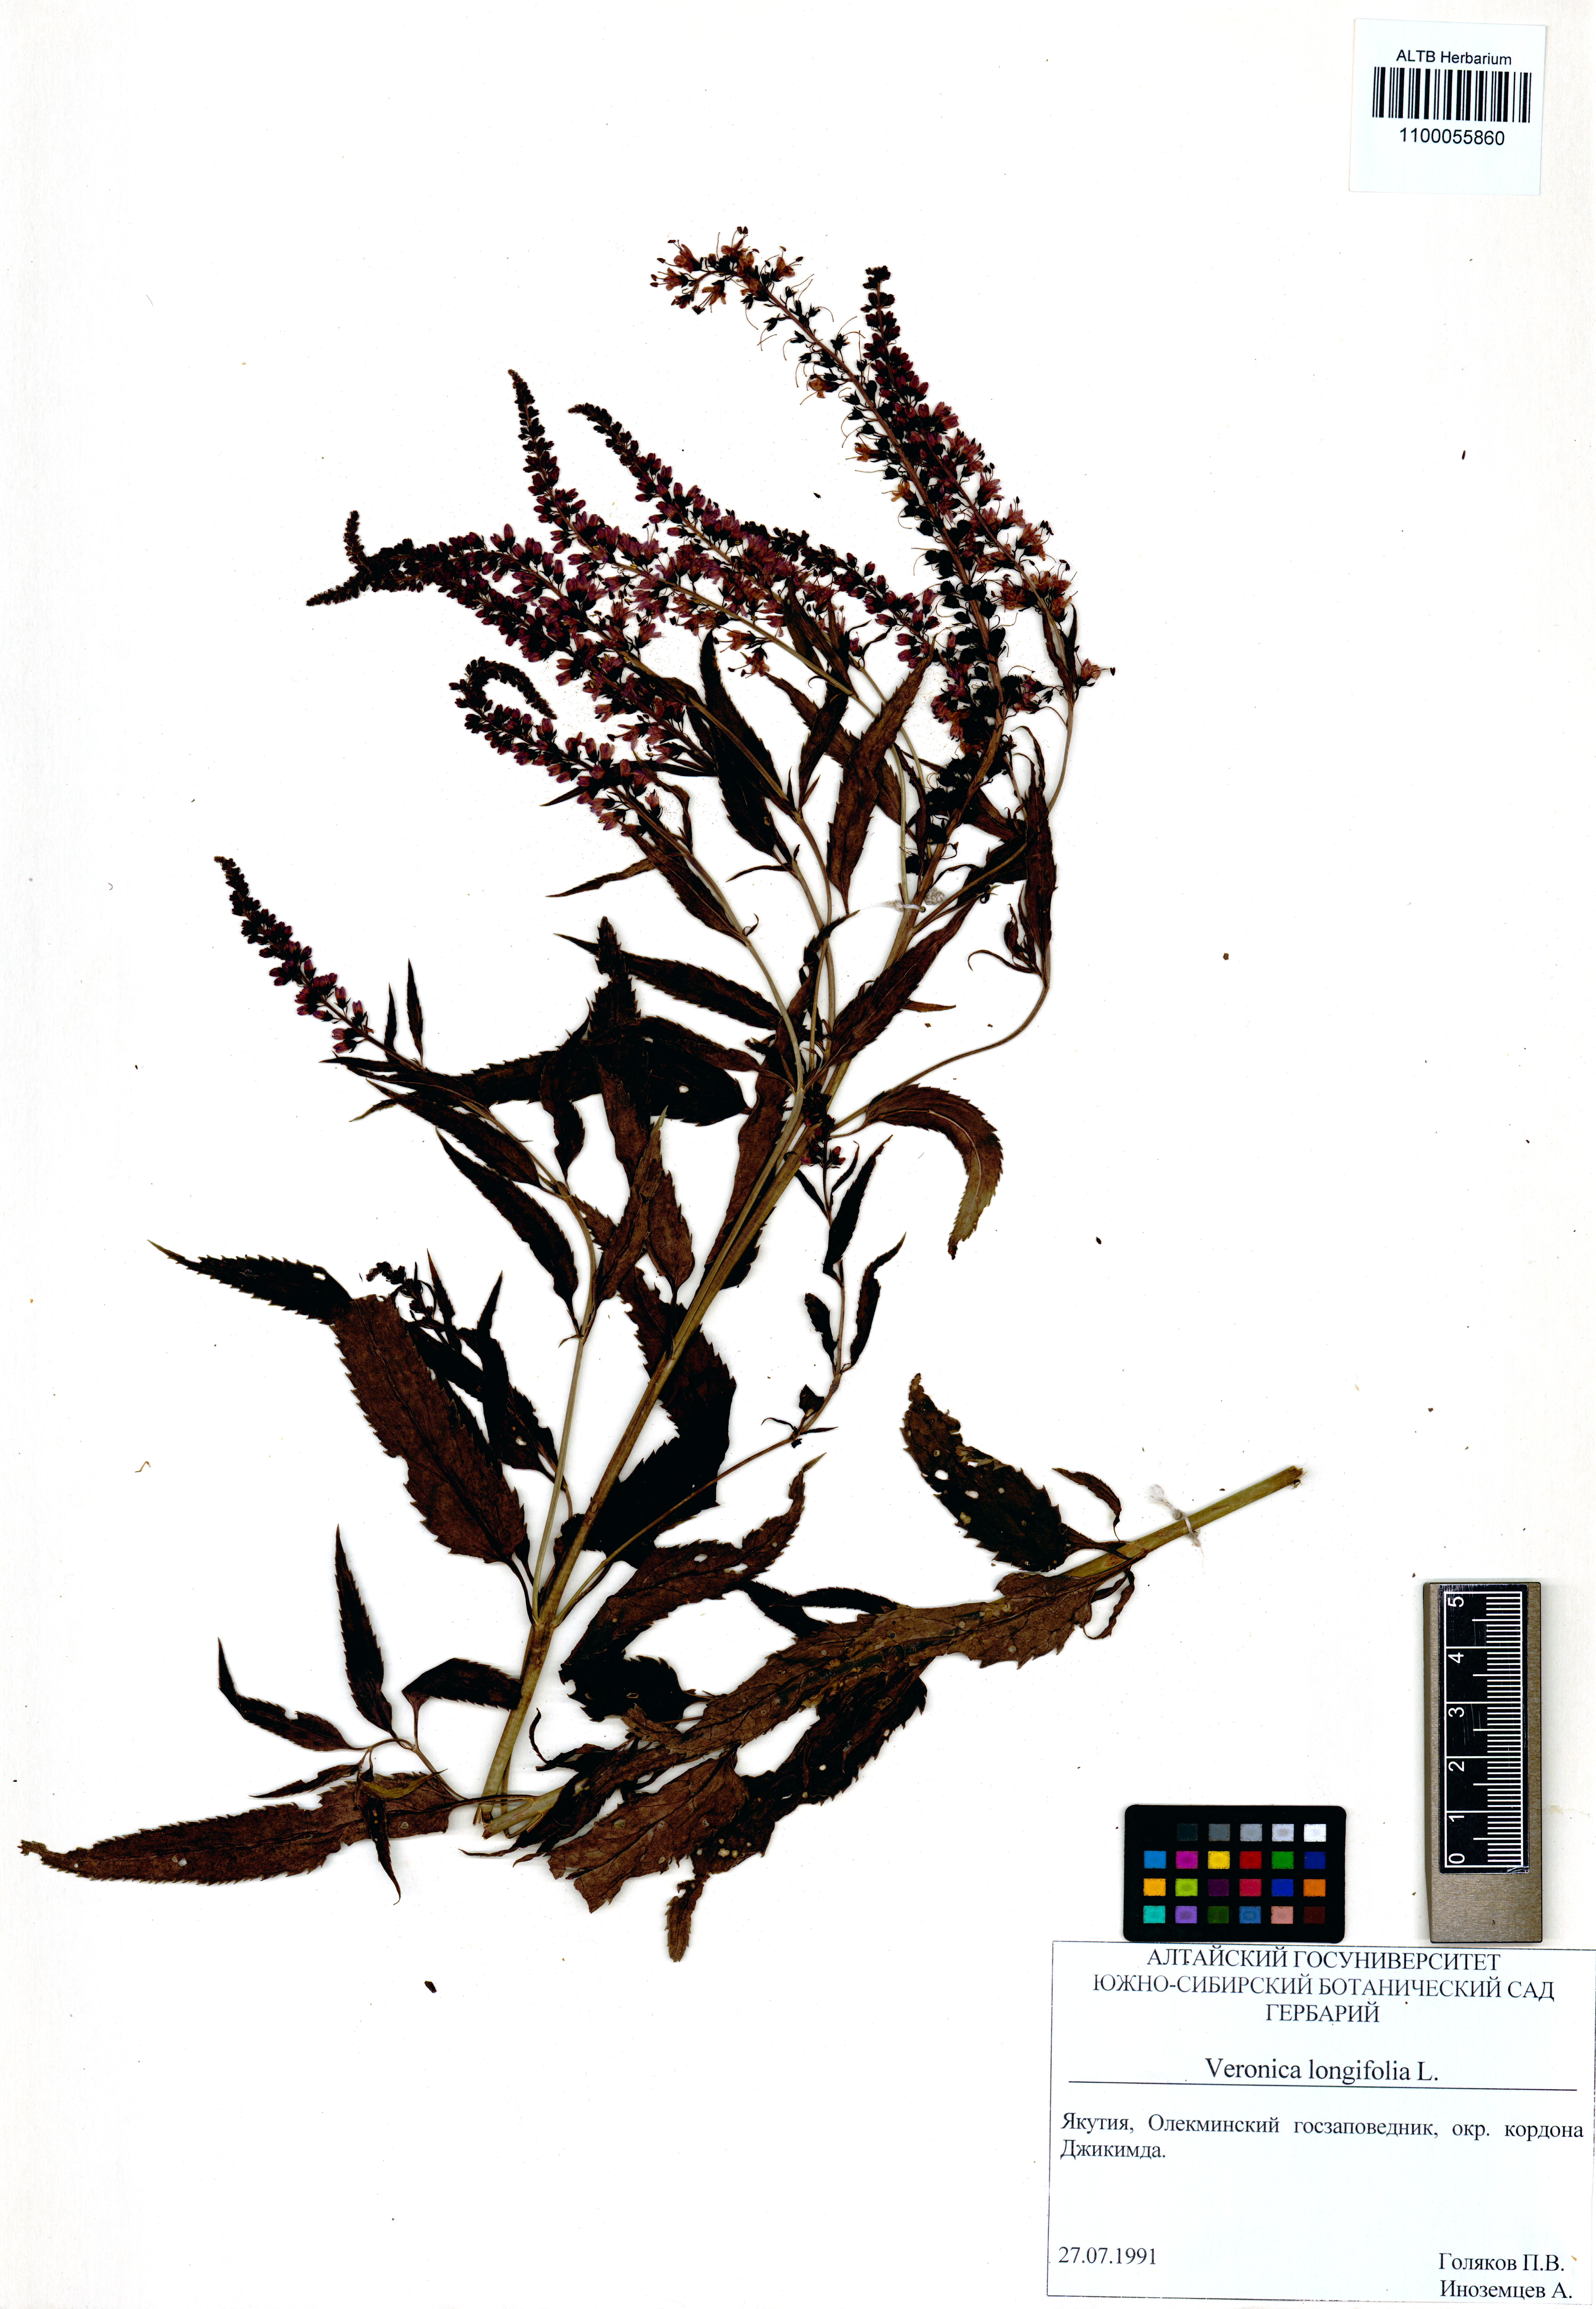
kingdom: Plantae
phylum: Tracheophyta
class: Magnoliopsida
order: Lamiales
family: Plantaginaceae
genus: Veronica
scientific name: Veronica longifolia
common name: Garden speedwell
